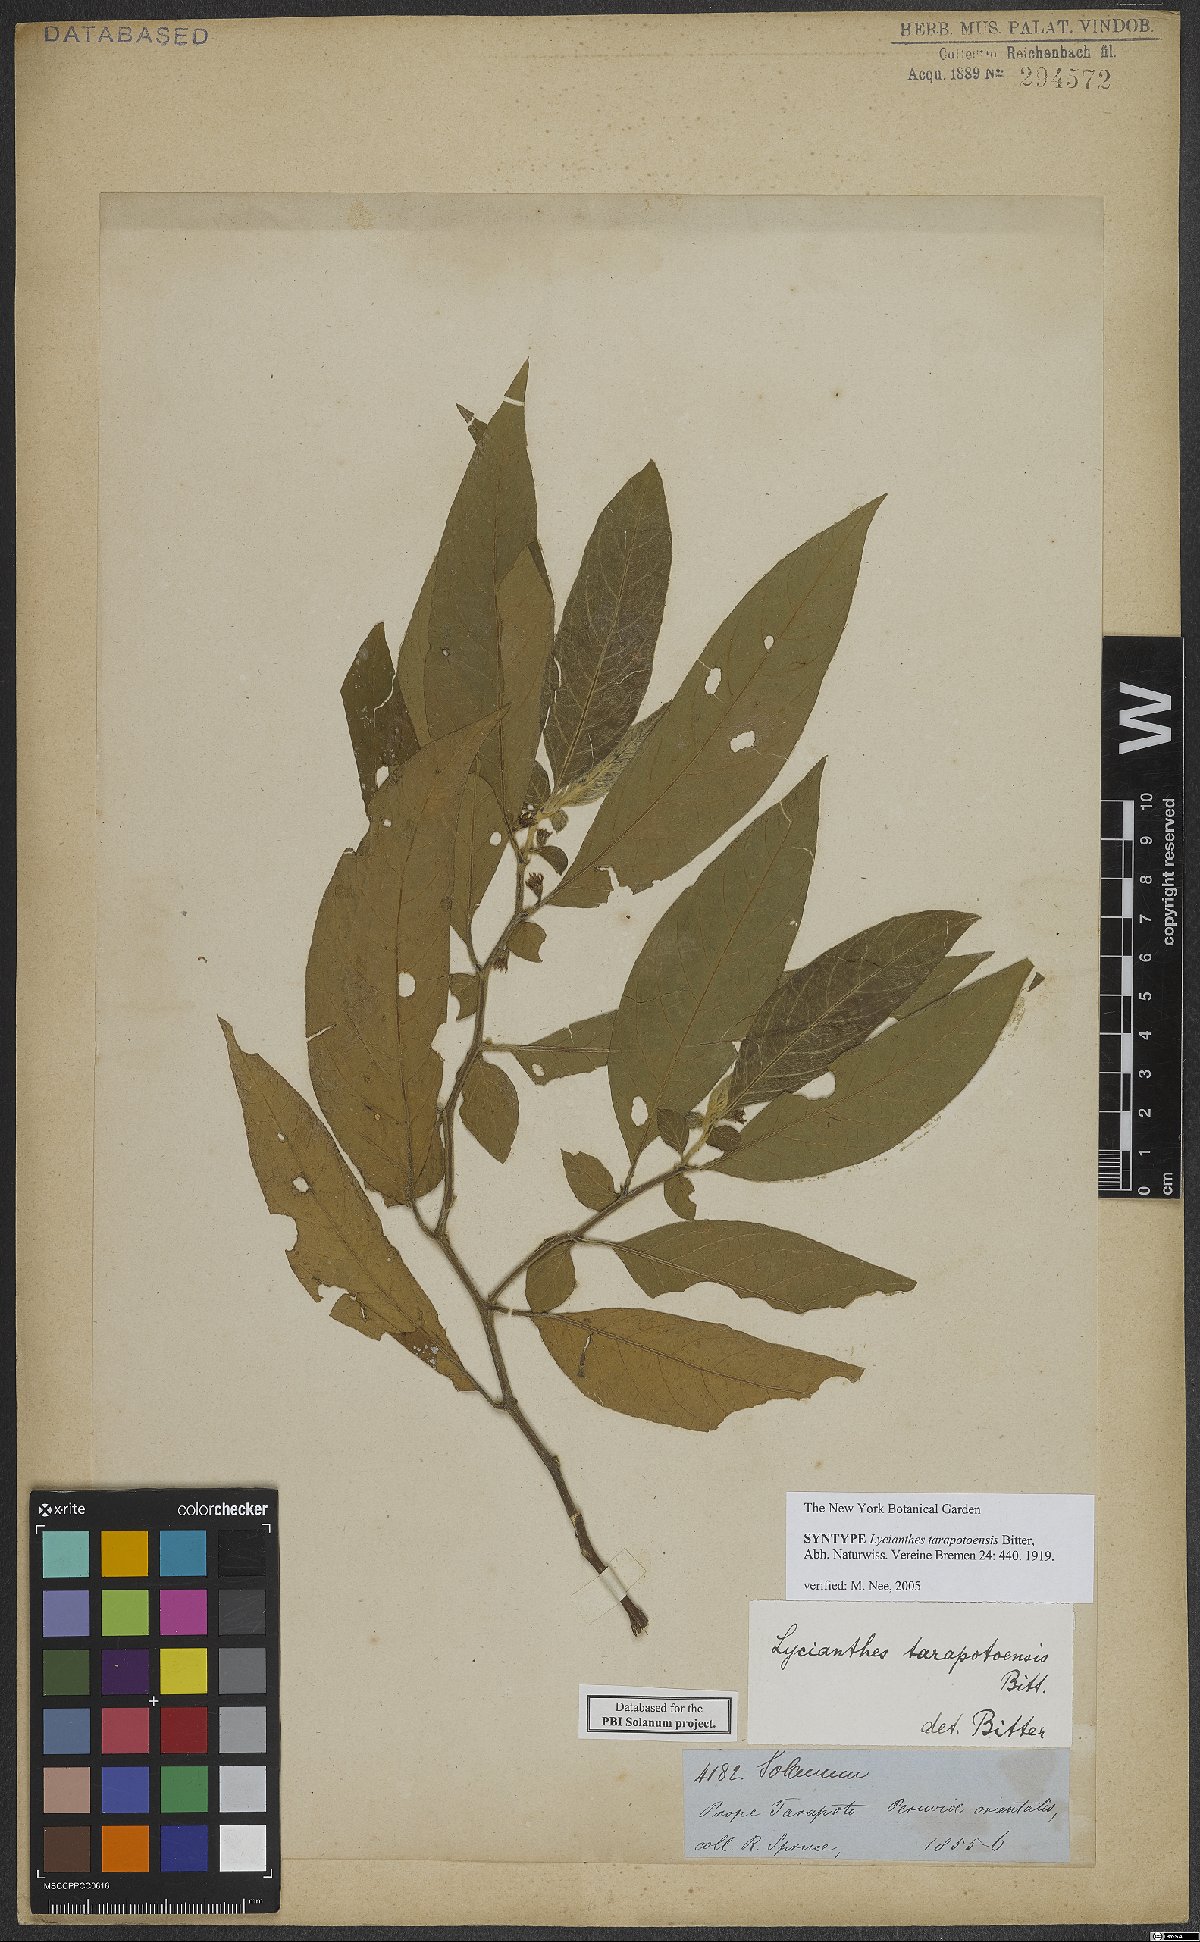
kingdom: Plantae
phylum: Tracheophyta
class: Magnoliopsida
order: Solanales
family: Solanaceae
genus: Lycianthes
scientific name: Lycianthes tarapotensis
